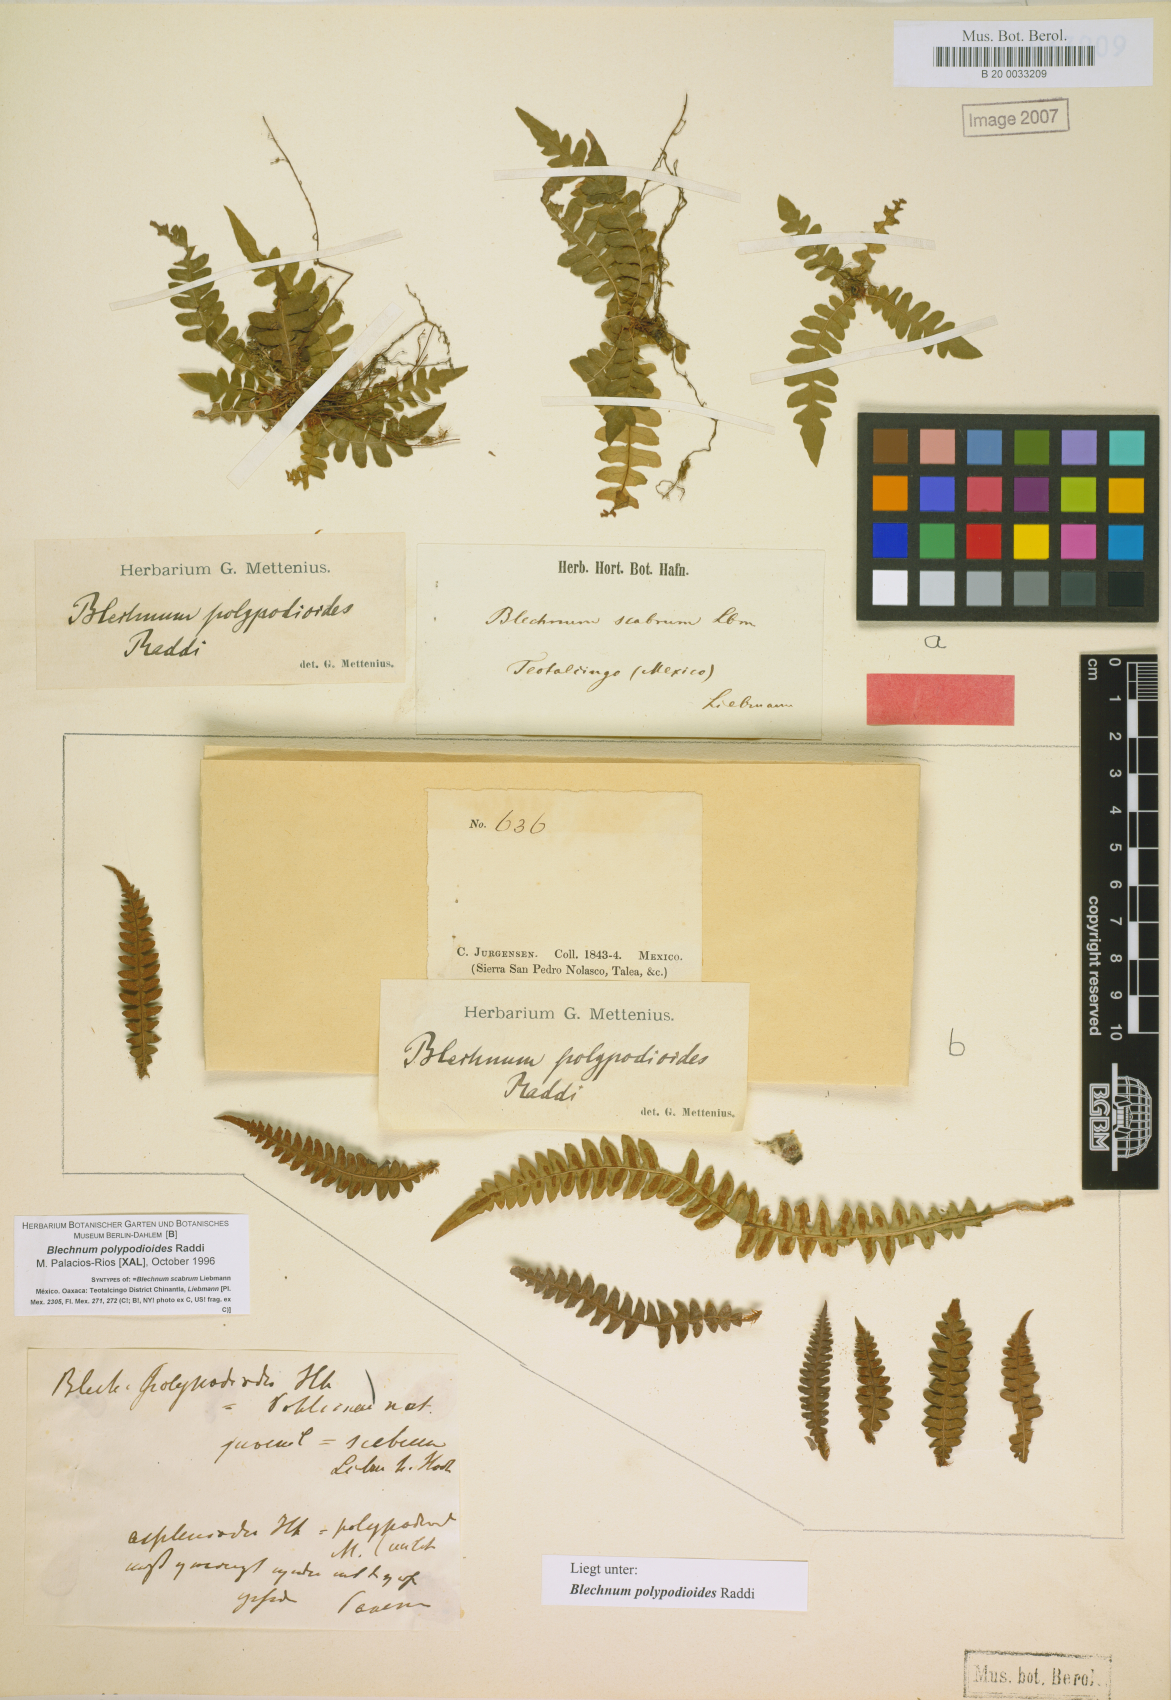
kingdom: Plantae
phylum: Tracheophyta
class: Polypodiopsida
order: Polypodiales
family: Blechnaceae
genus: Blechnum
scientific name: Blechnum polypodioides
